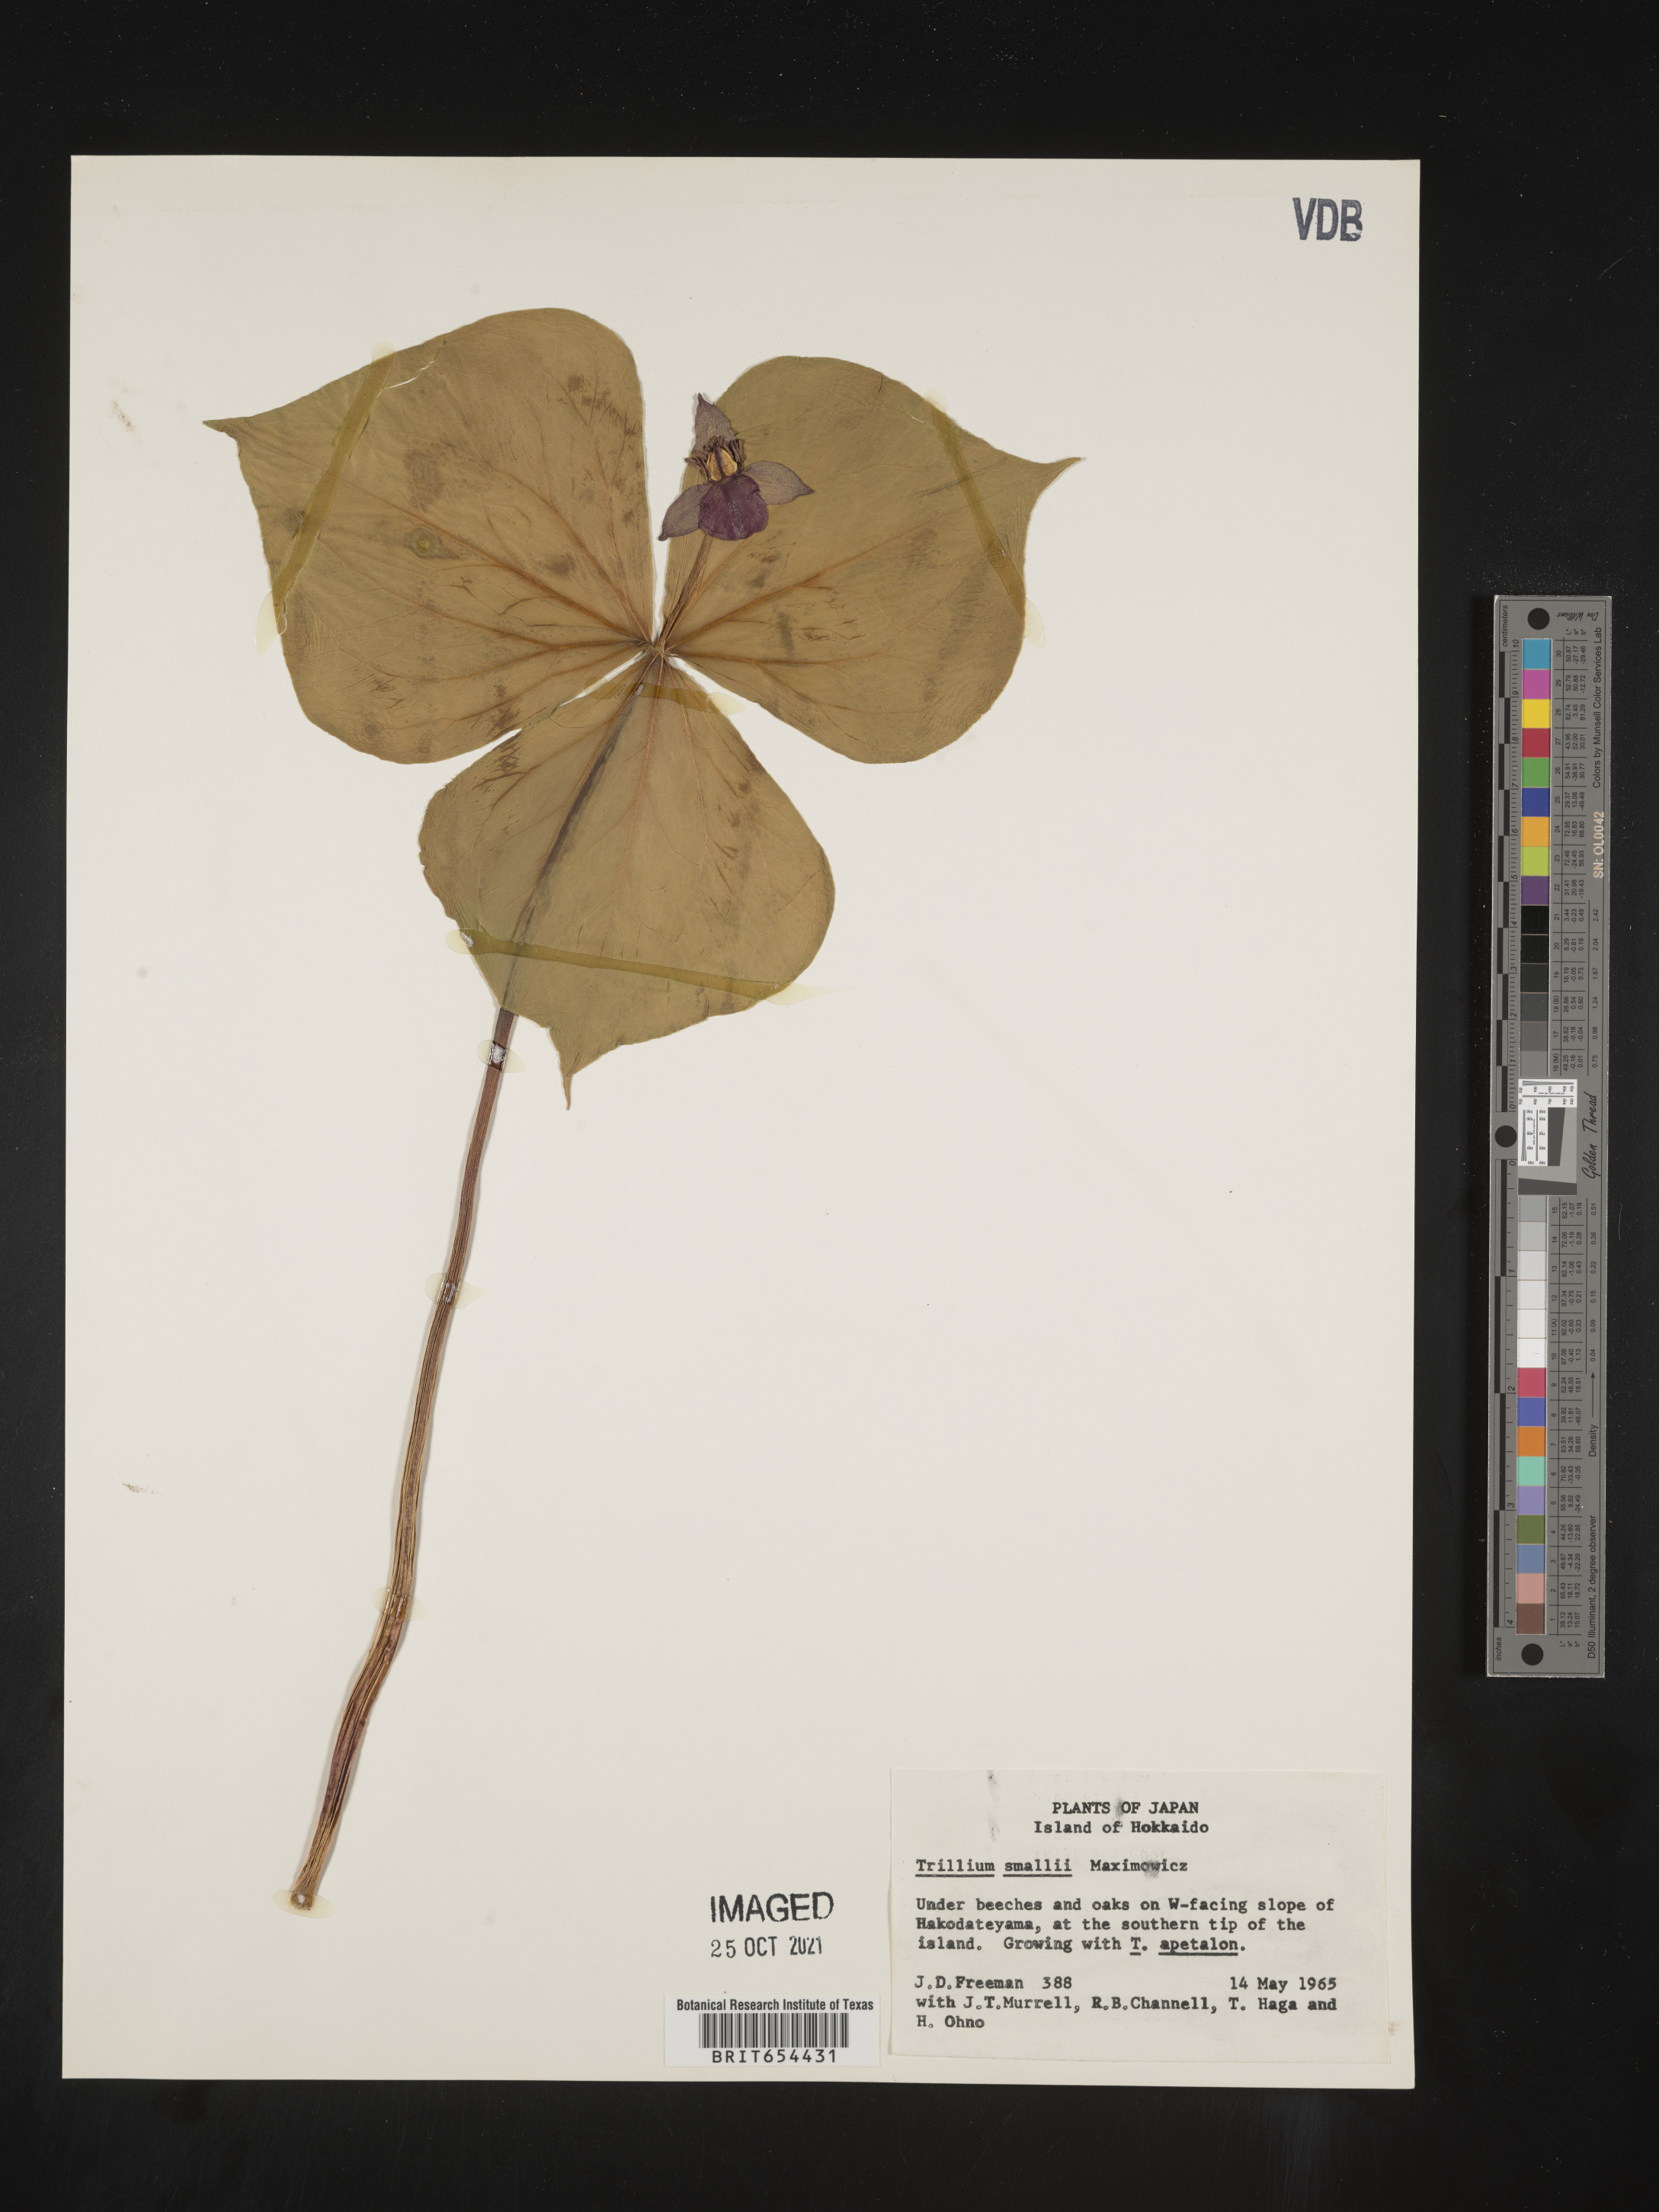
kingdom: Plantae
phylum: Tracheophyta
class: Liliopsida
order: Liliales
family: Melanthiaceae
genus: Trillium
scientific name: Trillium
